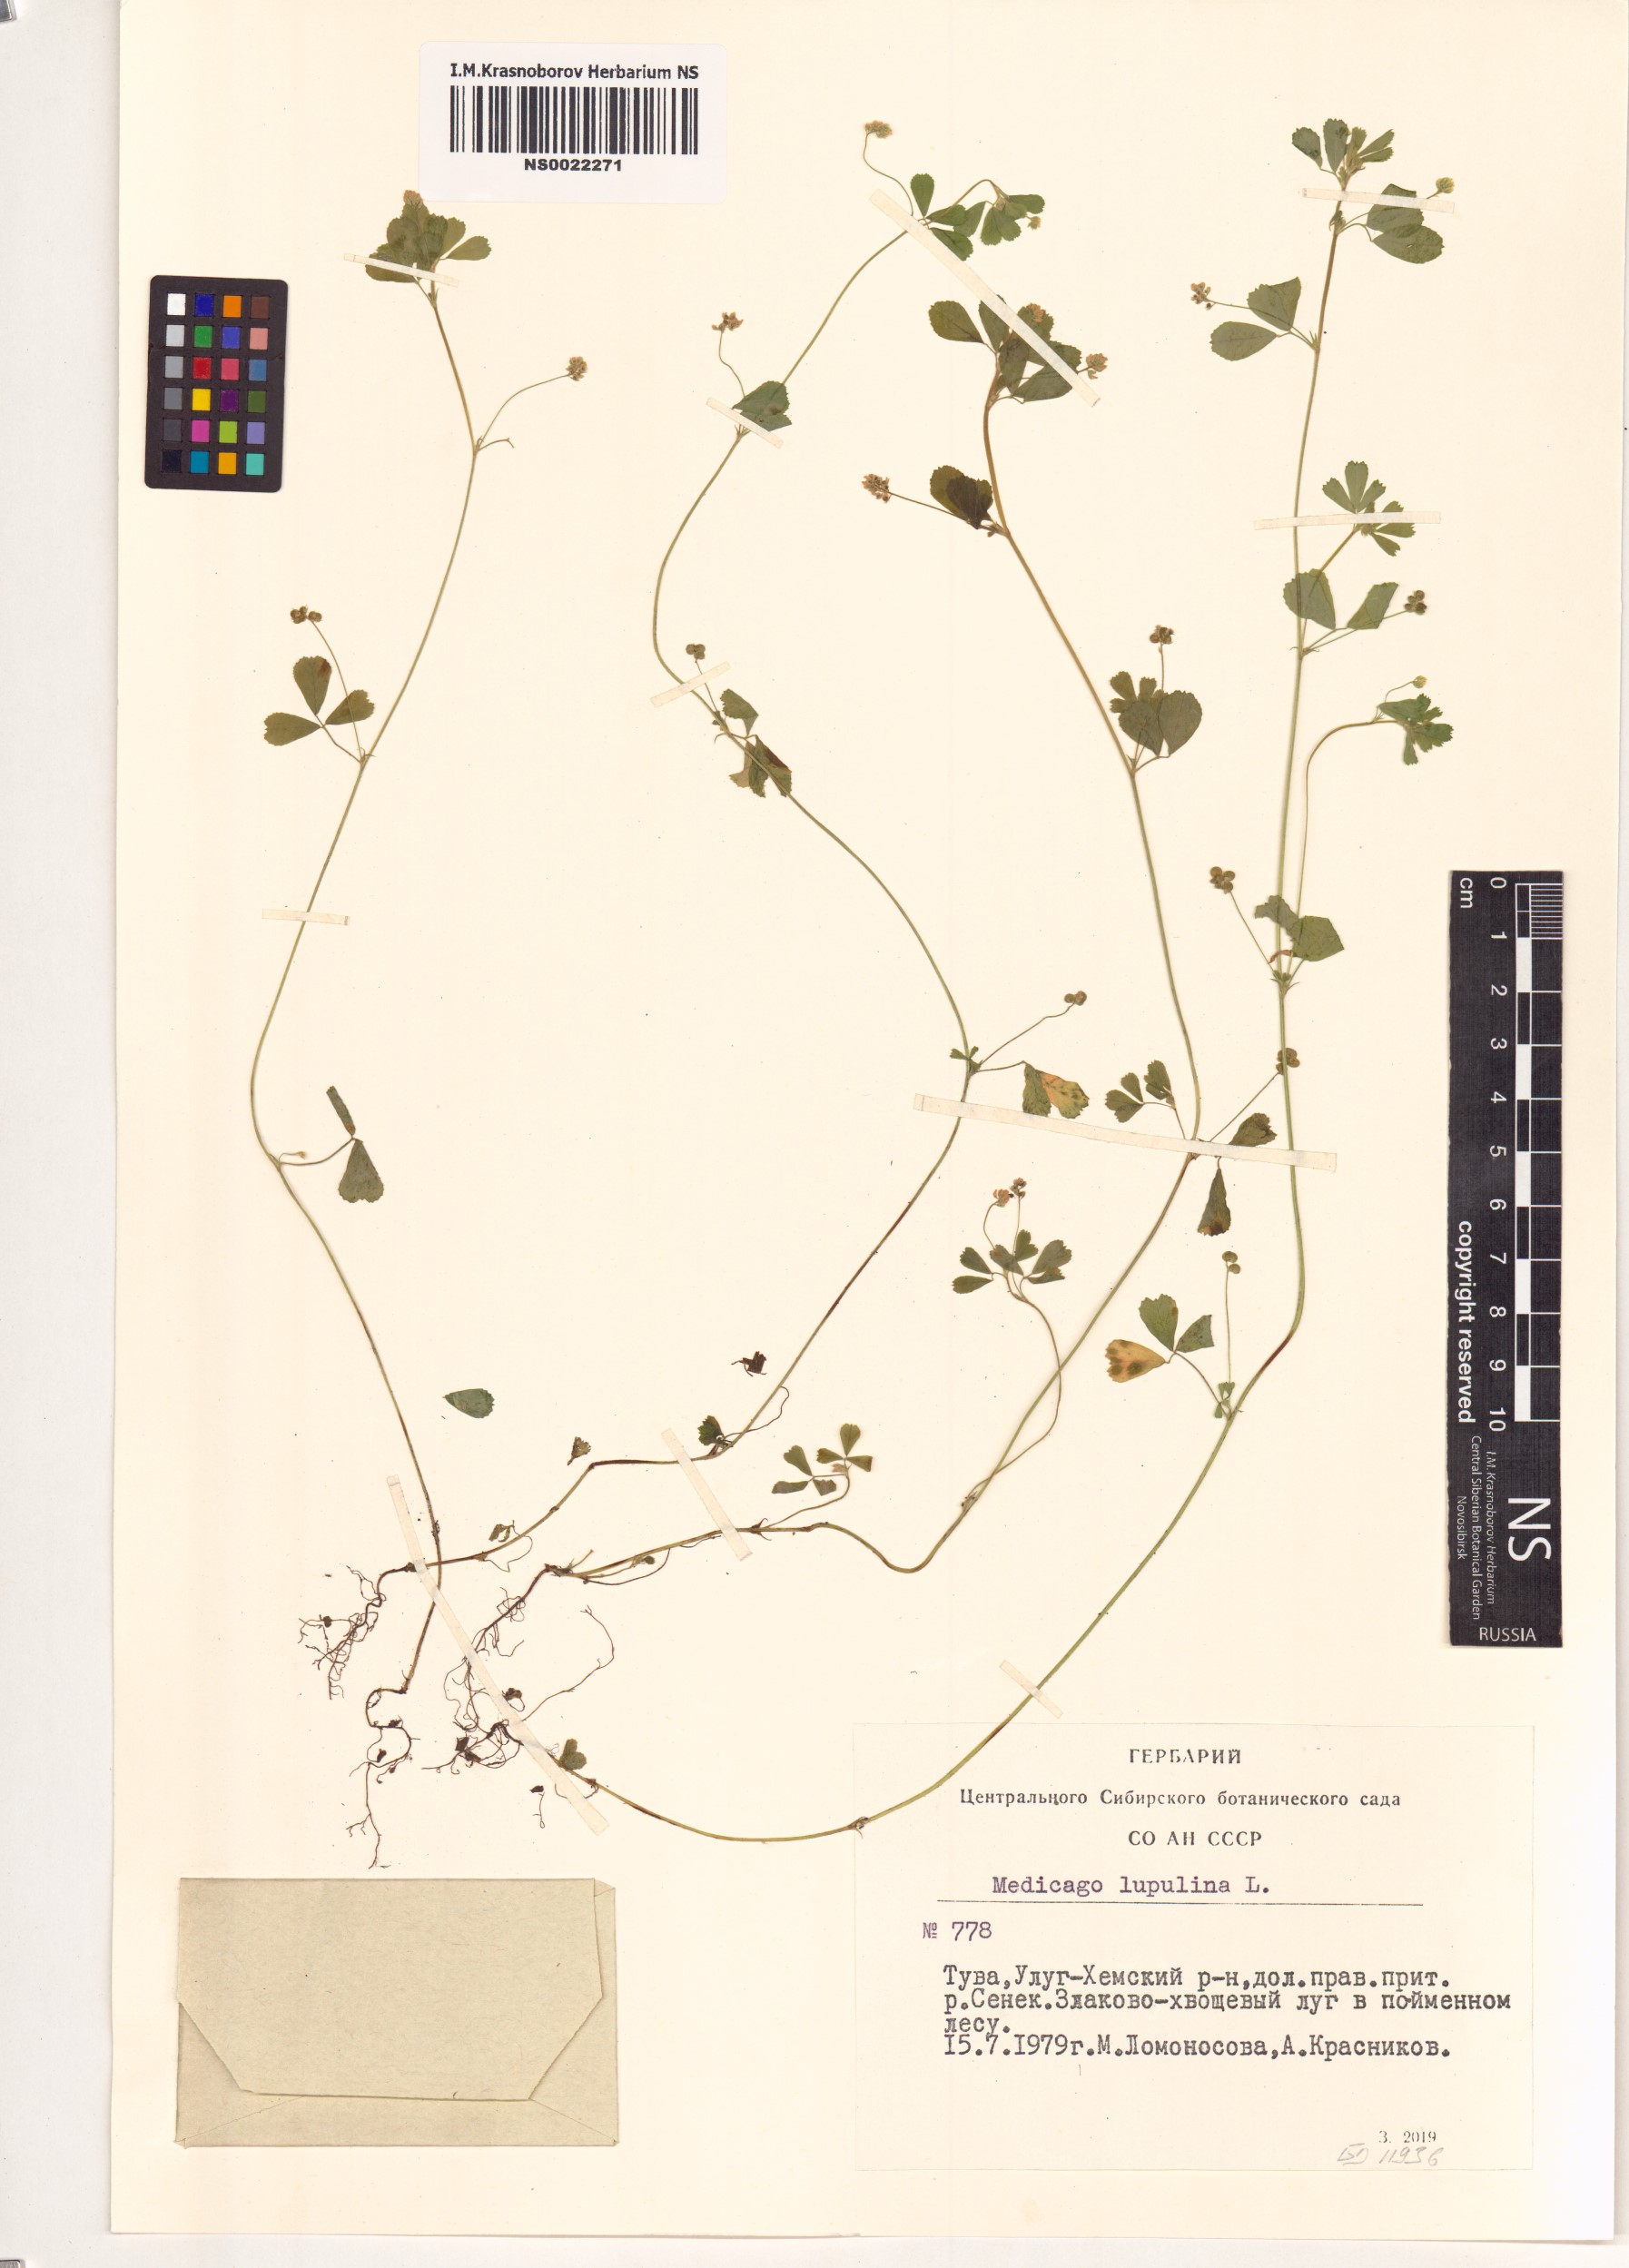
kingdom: Plantae
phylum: Tracheophyta
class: Magnoliopsida
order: Fabales
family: Fabaceae
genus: Medicago
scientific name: Medicago lupulina
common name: Black medick
